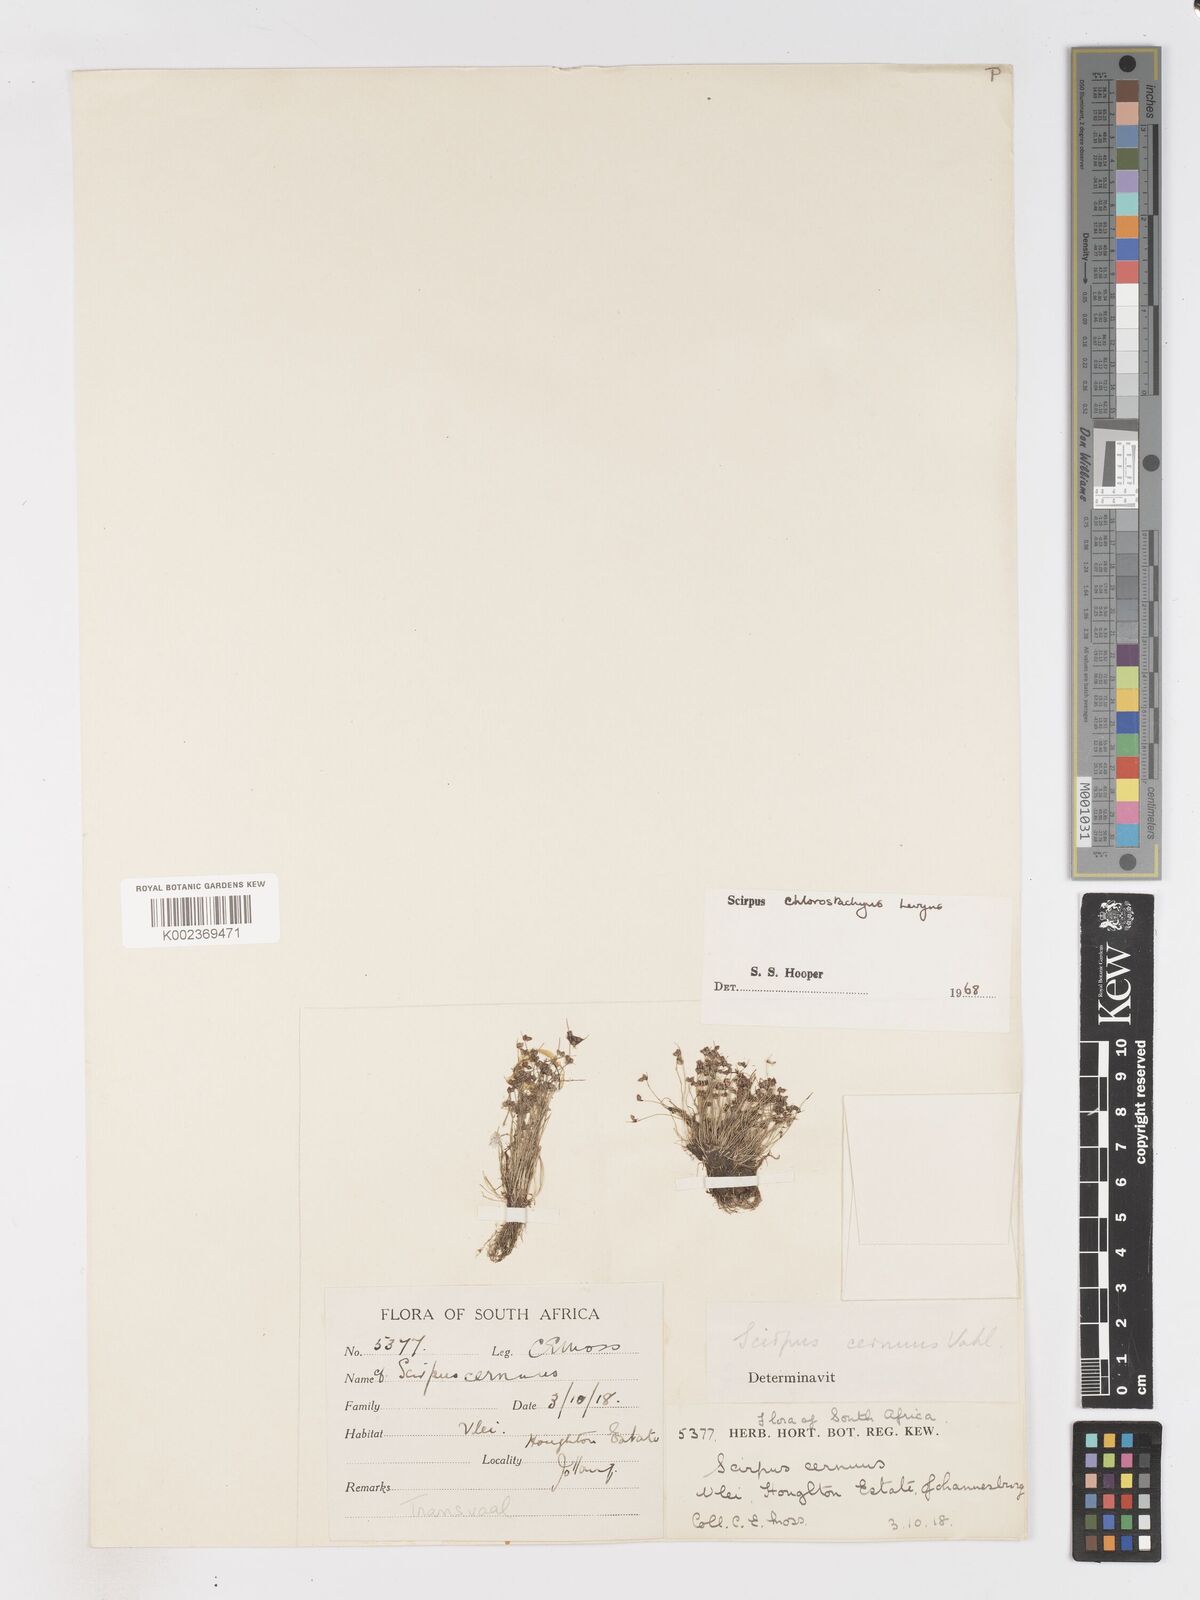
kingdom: Plantae
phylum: Tracheophyta
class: Liliopsida
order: Poales
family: Cyperaceae
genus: Isolepis
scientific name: Isolepis tenuissima
